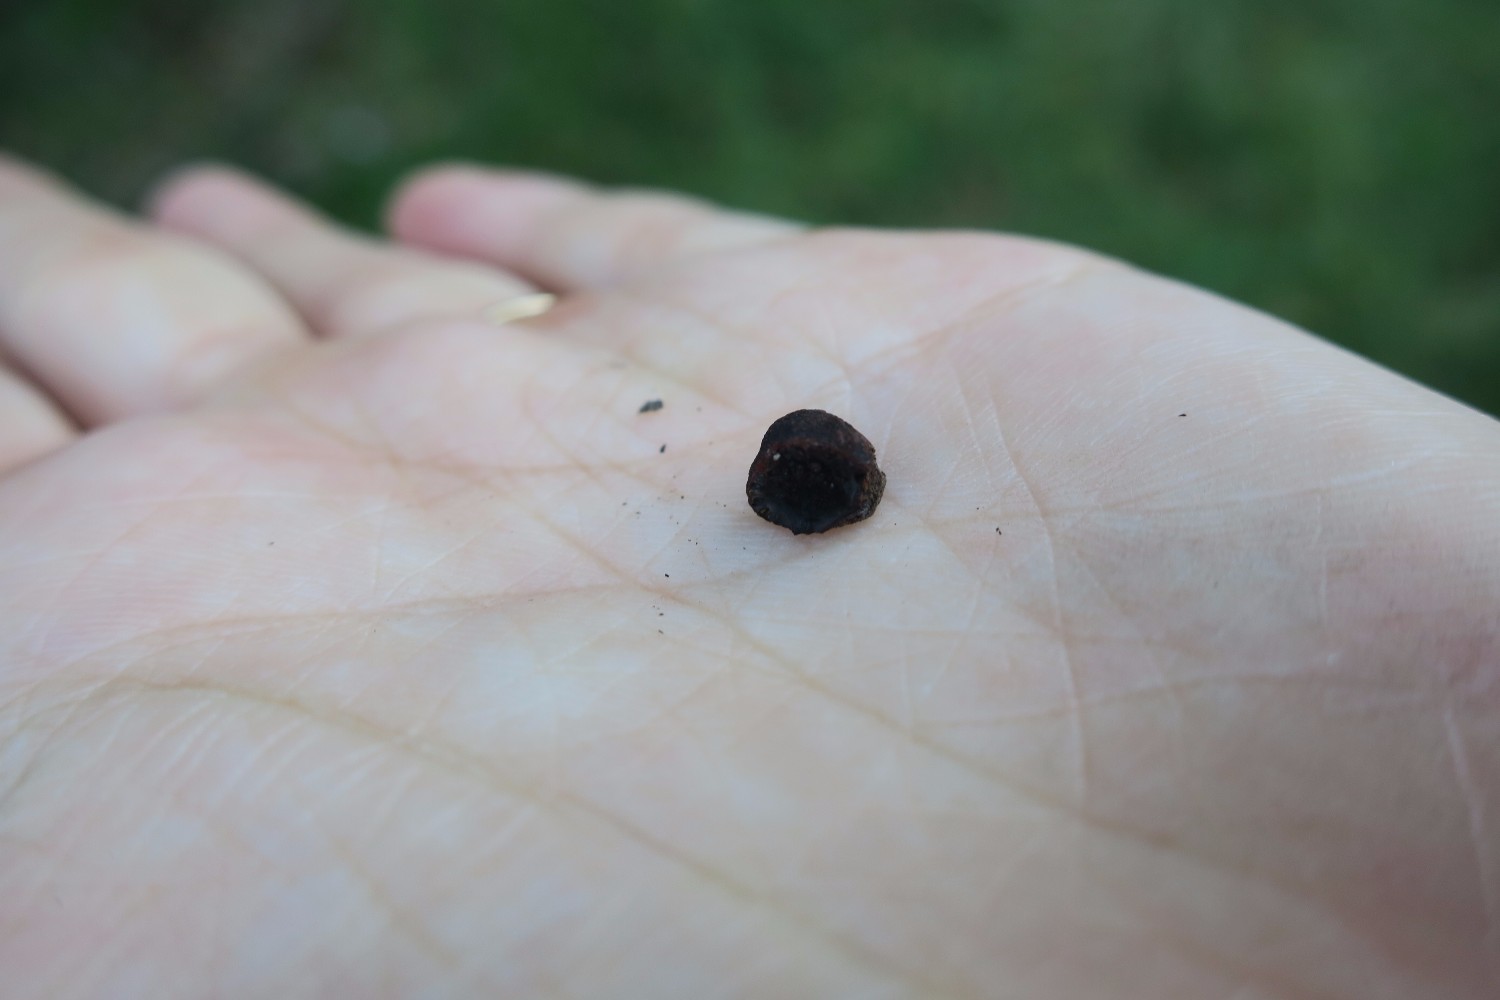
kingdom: Fungi
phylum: Ascomycota
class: Sordariomycetes
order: Xylariales
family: Hypoxylaceae
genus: Hypoxylon
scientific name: Hypoxylon fragiforme
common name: kuljordbær
